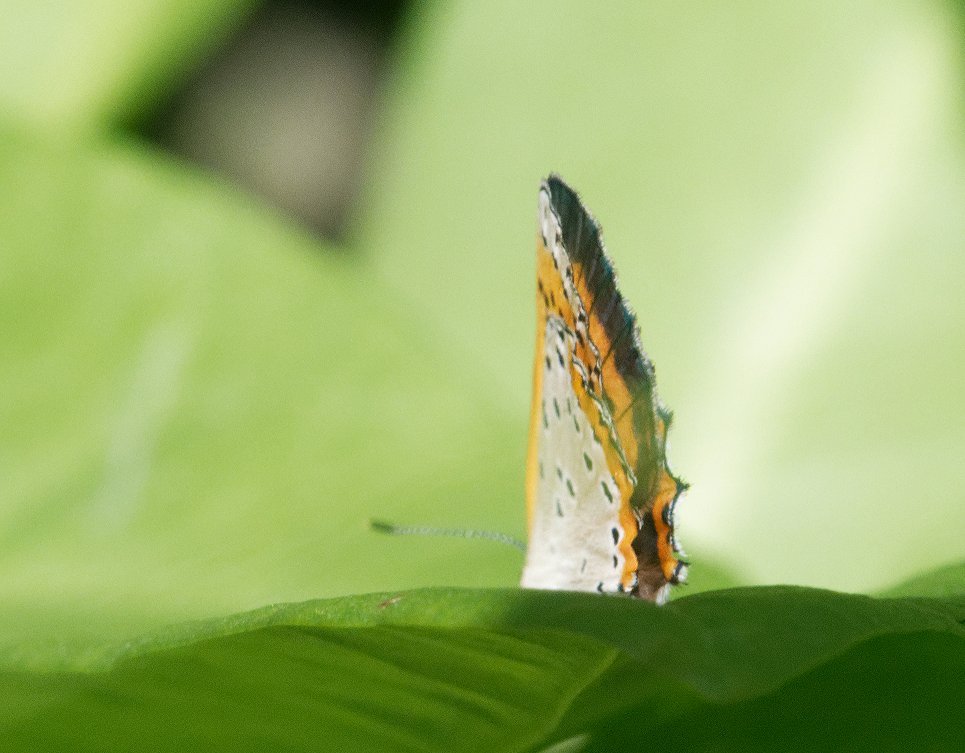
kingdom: Animalia
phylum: Arthropoda
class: Insecta
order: Lepidoptera
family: Sesiidae
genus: Sesia
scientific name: Sesia Lycaena hyllus
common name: Bronze Copper
